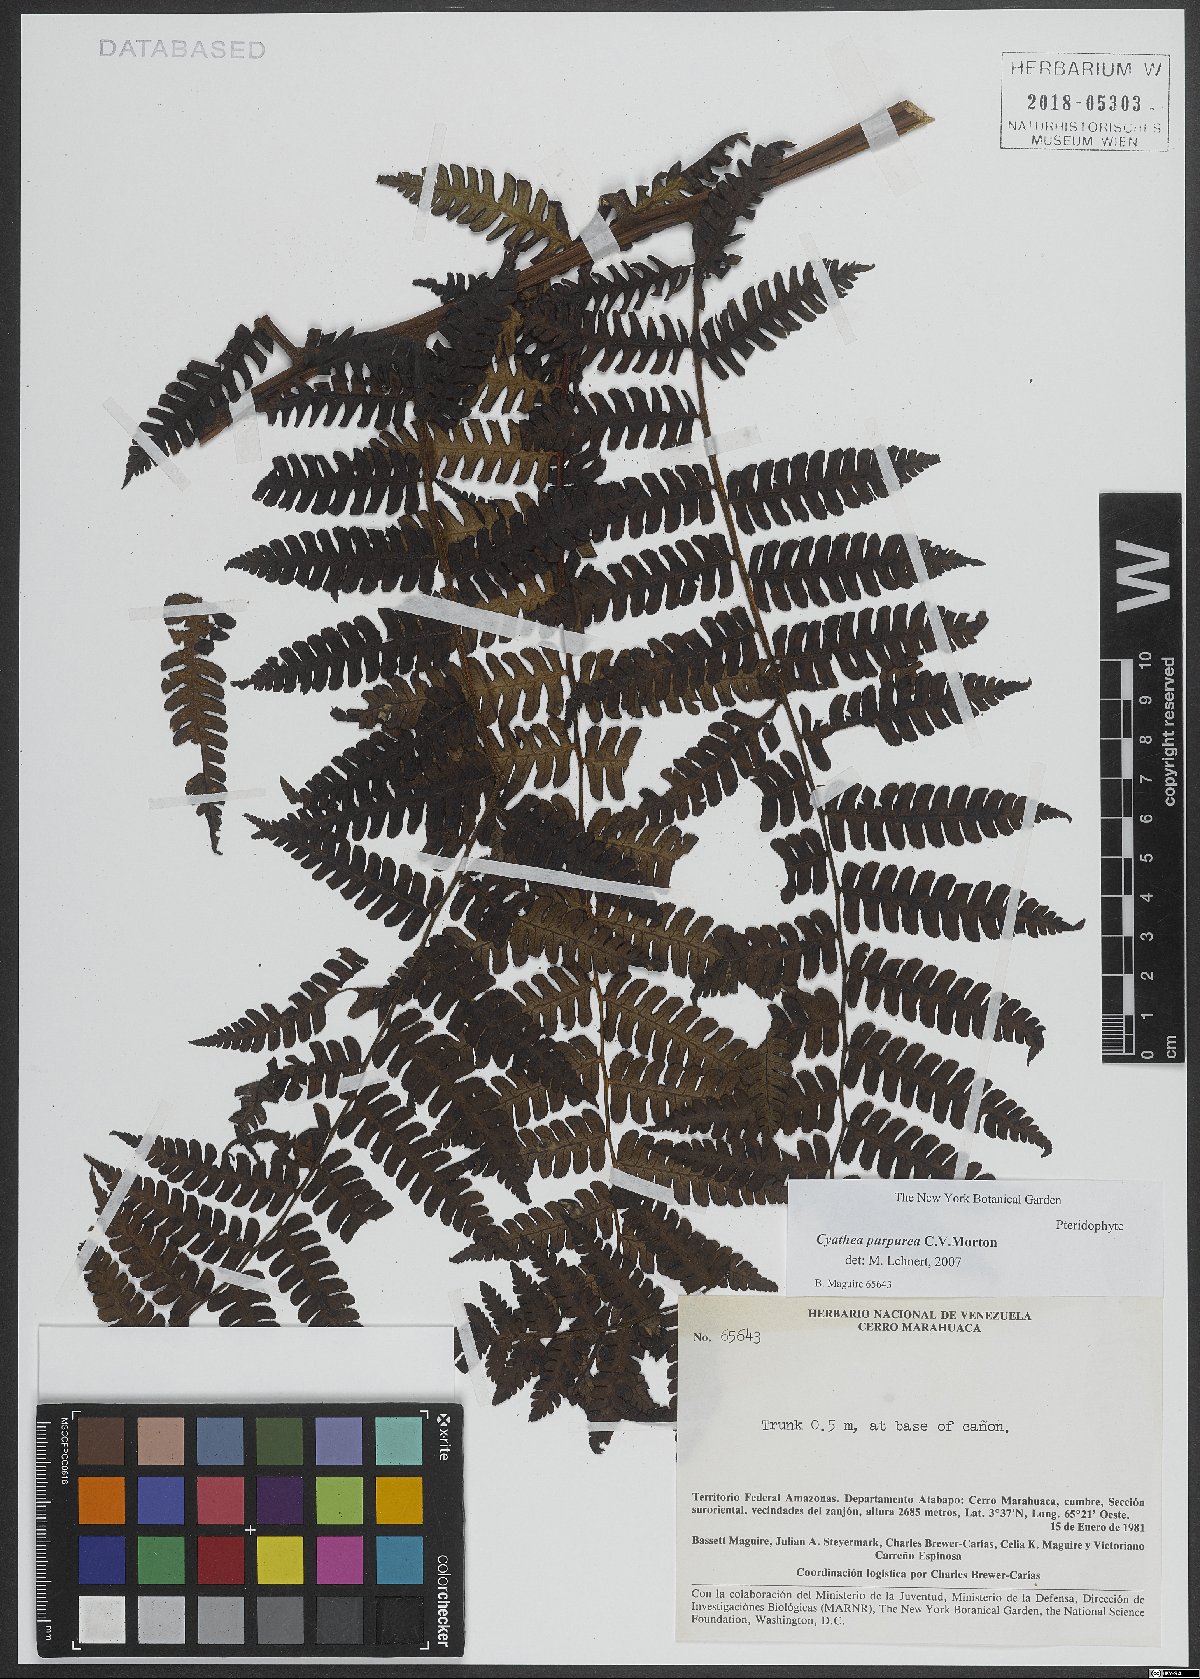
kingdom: Plantae
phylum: Tracheophyta
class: Polypodiopsida
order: Cyatheales
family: Cyatheaceae
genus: Cyathea
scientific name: Cyathea lechleri
